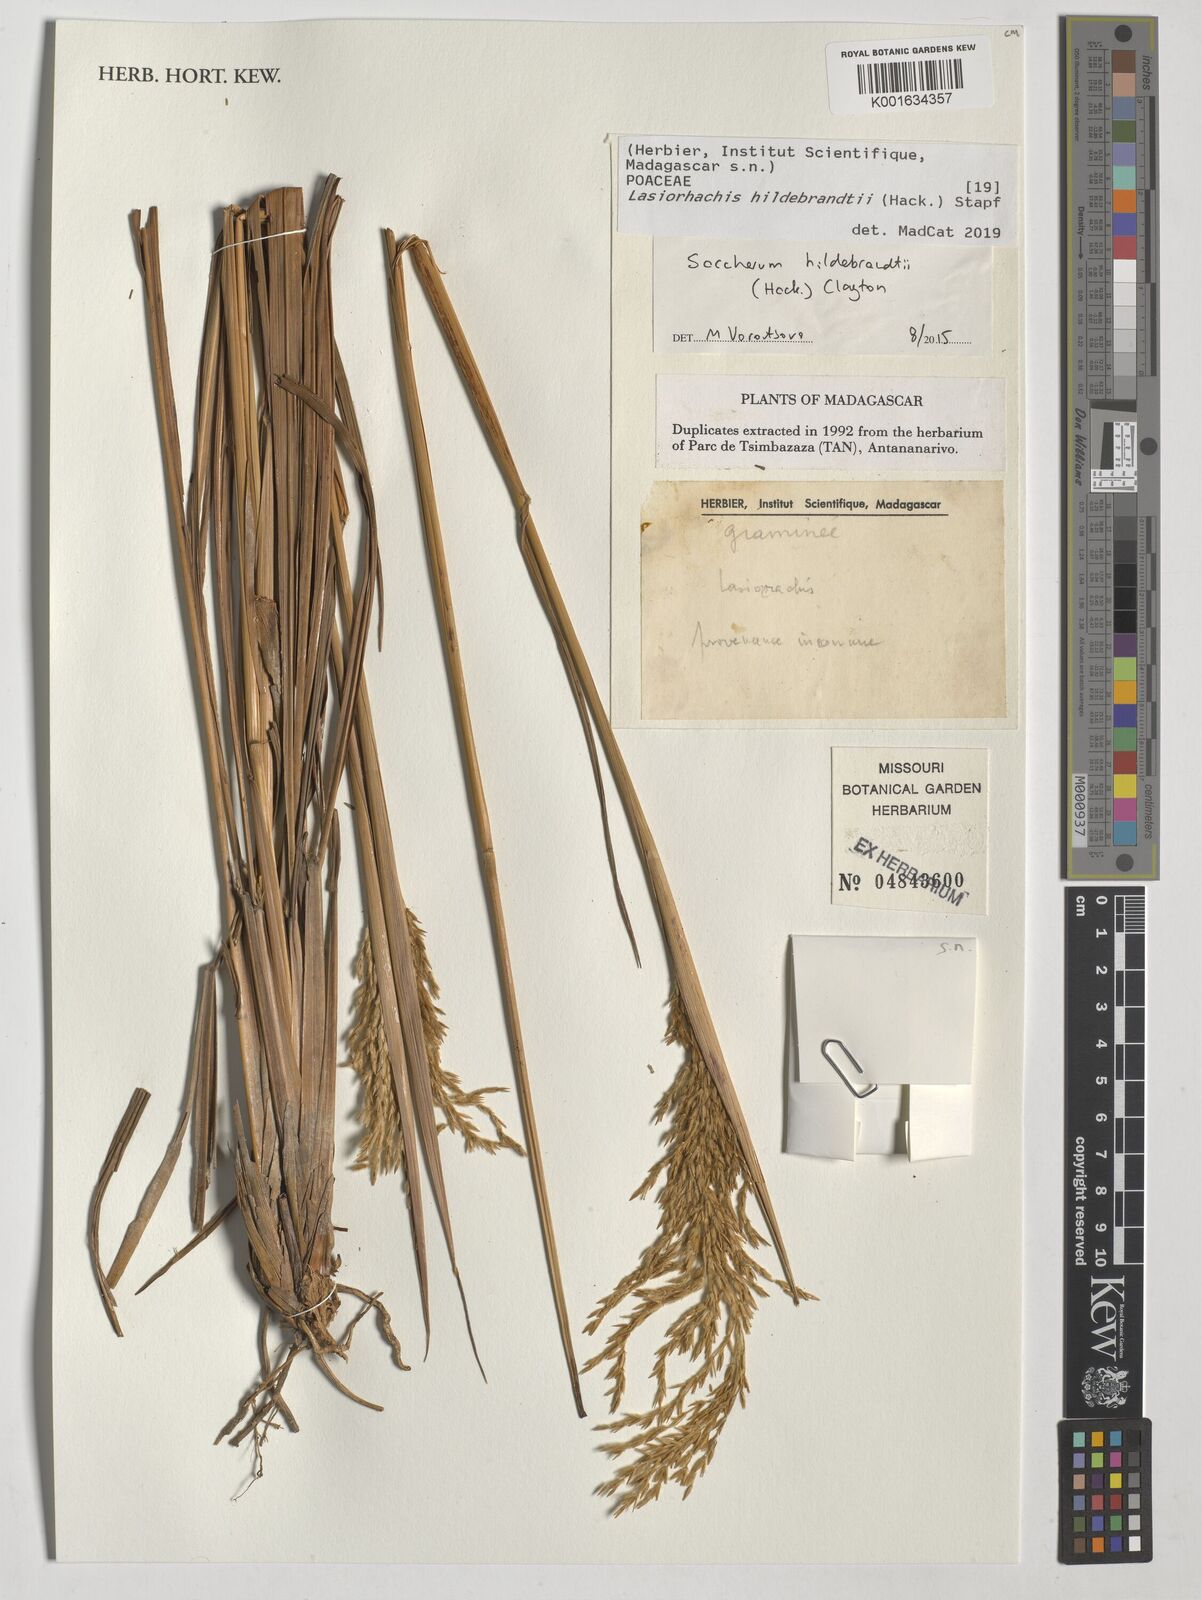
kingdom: Plantae
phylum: Tracheophyta
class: Liliopsida
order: Poales
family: Poaceae
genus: Lasiorhachis
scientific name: Lasiorhachis hildebrandtii
